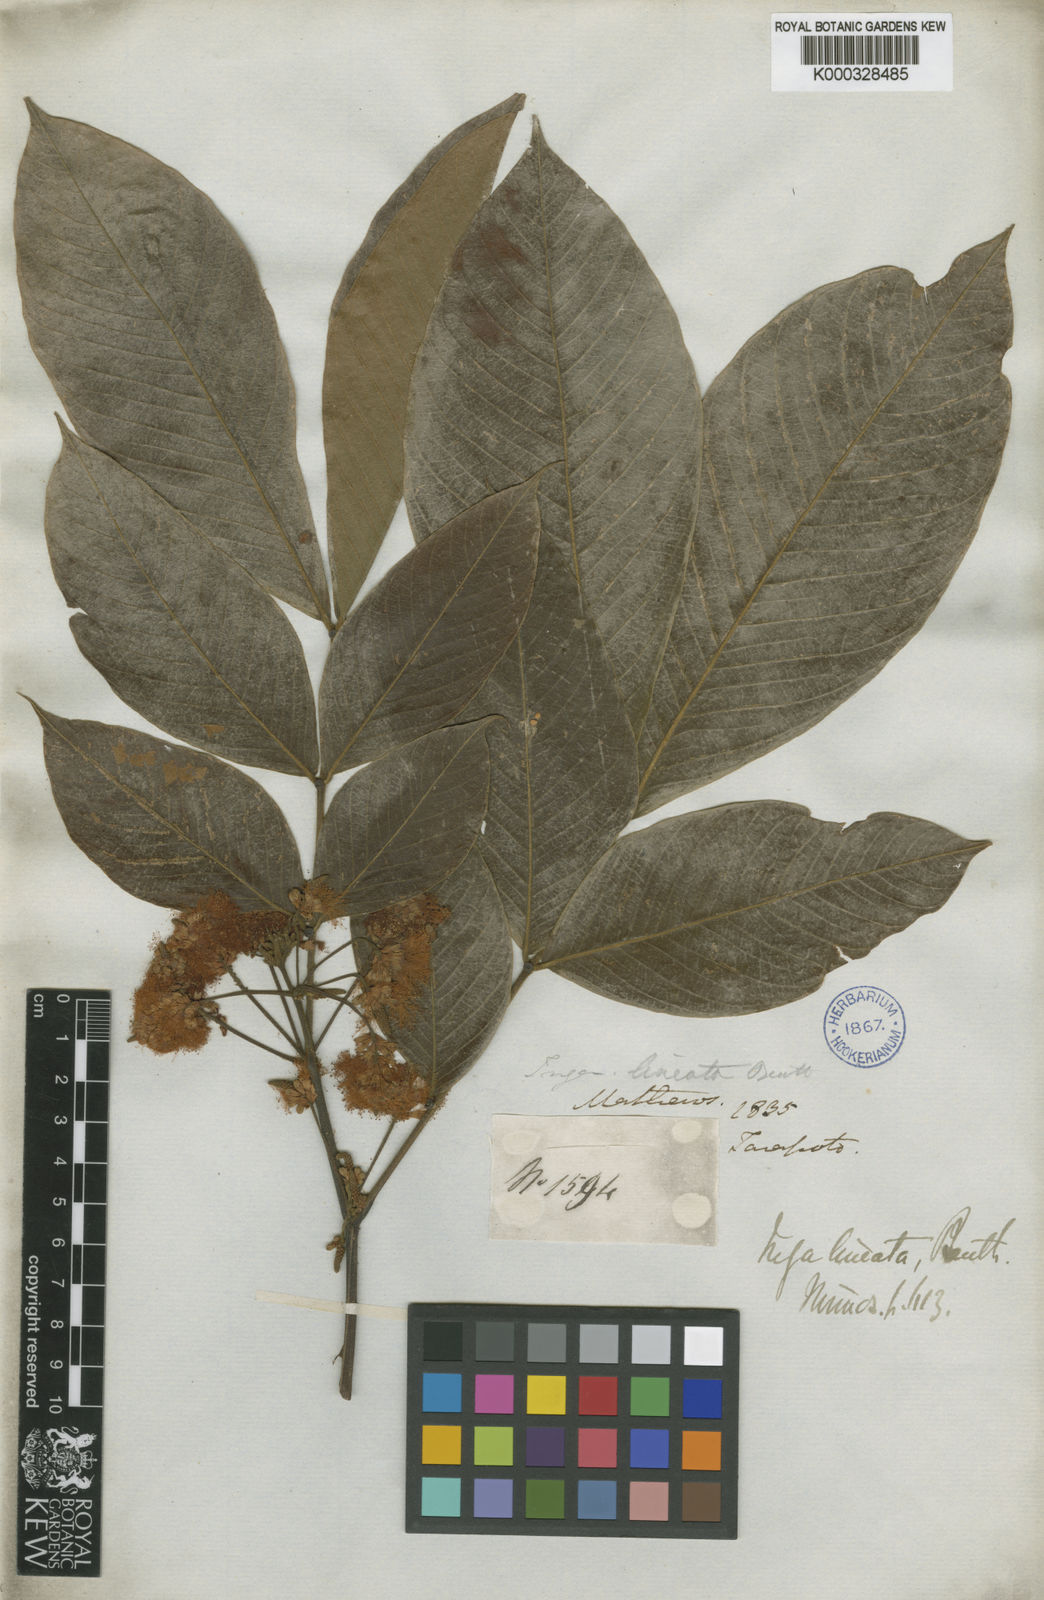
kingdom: Plantae
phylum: Tracheophyta
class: Magnoliopsida
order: Fabales
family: Fabaceae
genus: Inga
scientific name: Inga lineata
